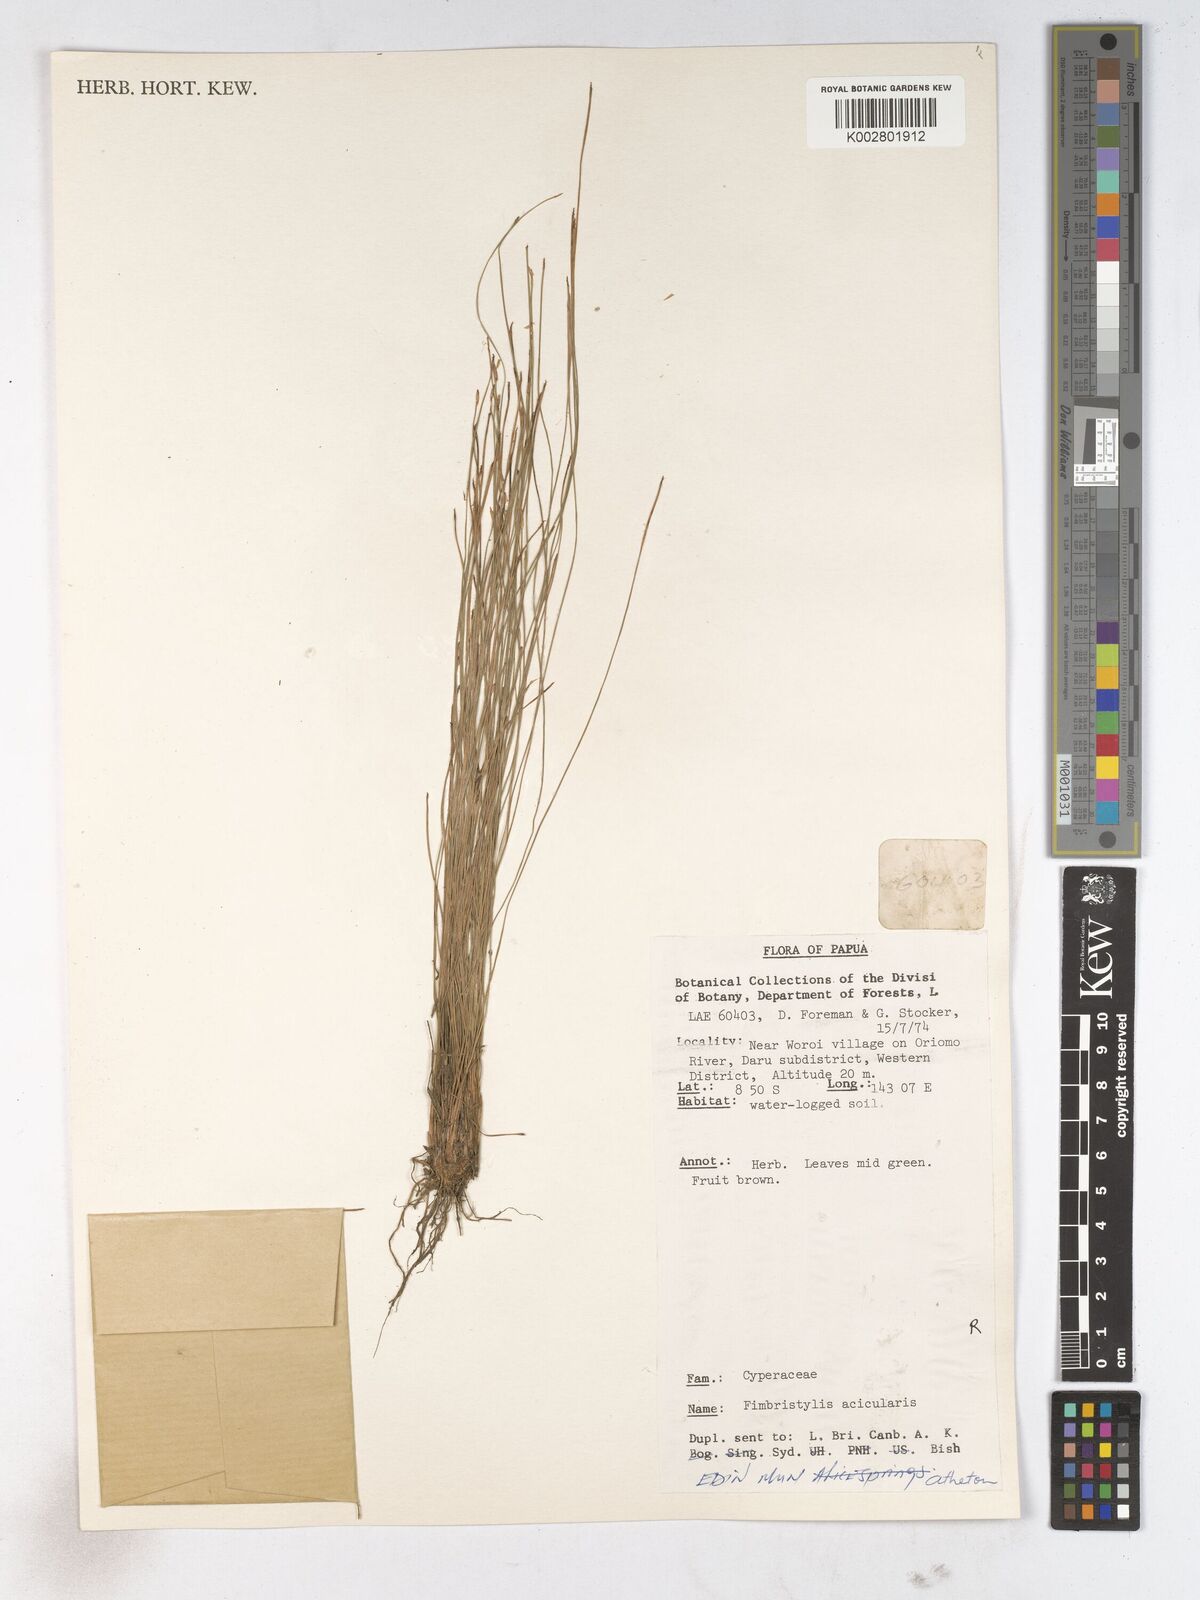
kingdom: Plantae
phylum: Tracheophyta
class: Liliopsida
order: Poales
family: Cyperaceae
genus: Fimbristylis
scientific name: Fimbristylis acicularis
